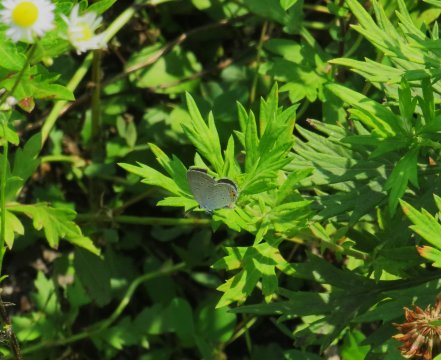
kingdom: Animalia
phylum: Arthropoda
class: Insecta
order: Lepidoptera
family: Lycaenidae
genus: Elkalyce
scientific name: Elkalyce comyntas
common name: Eastern Tailed-Blue
